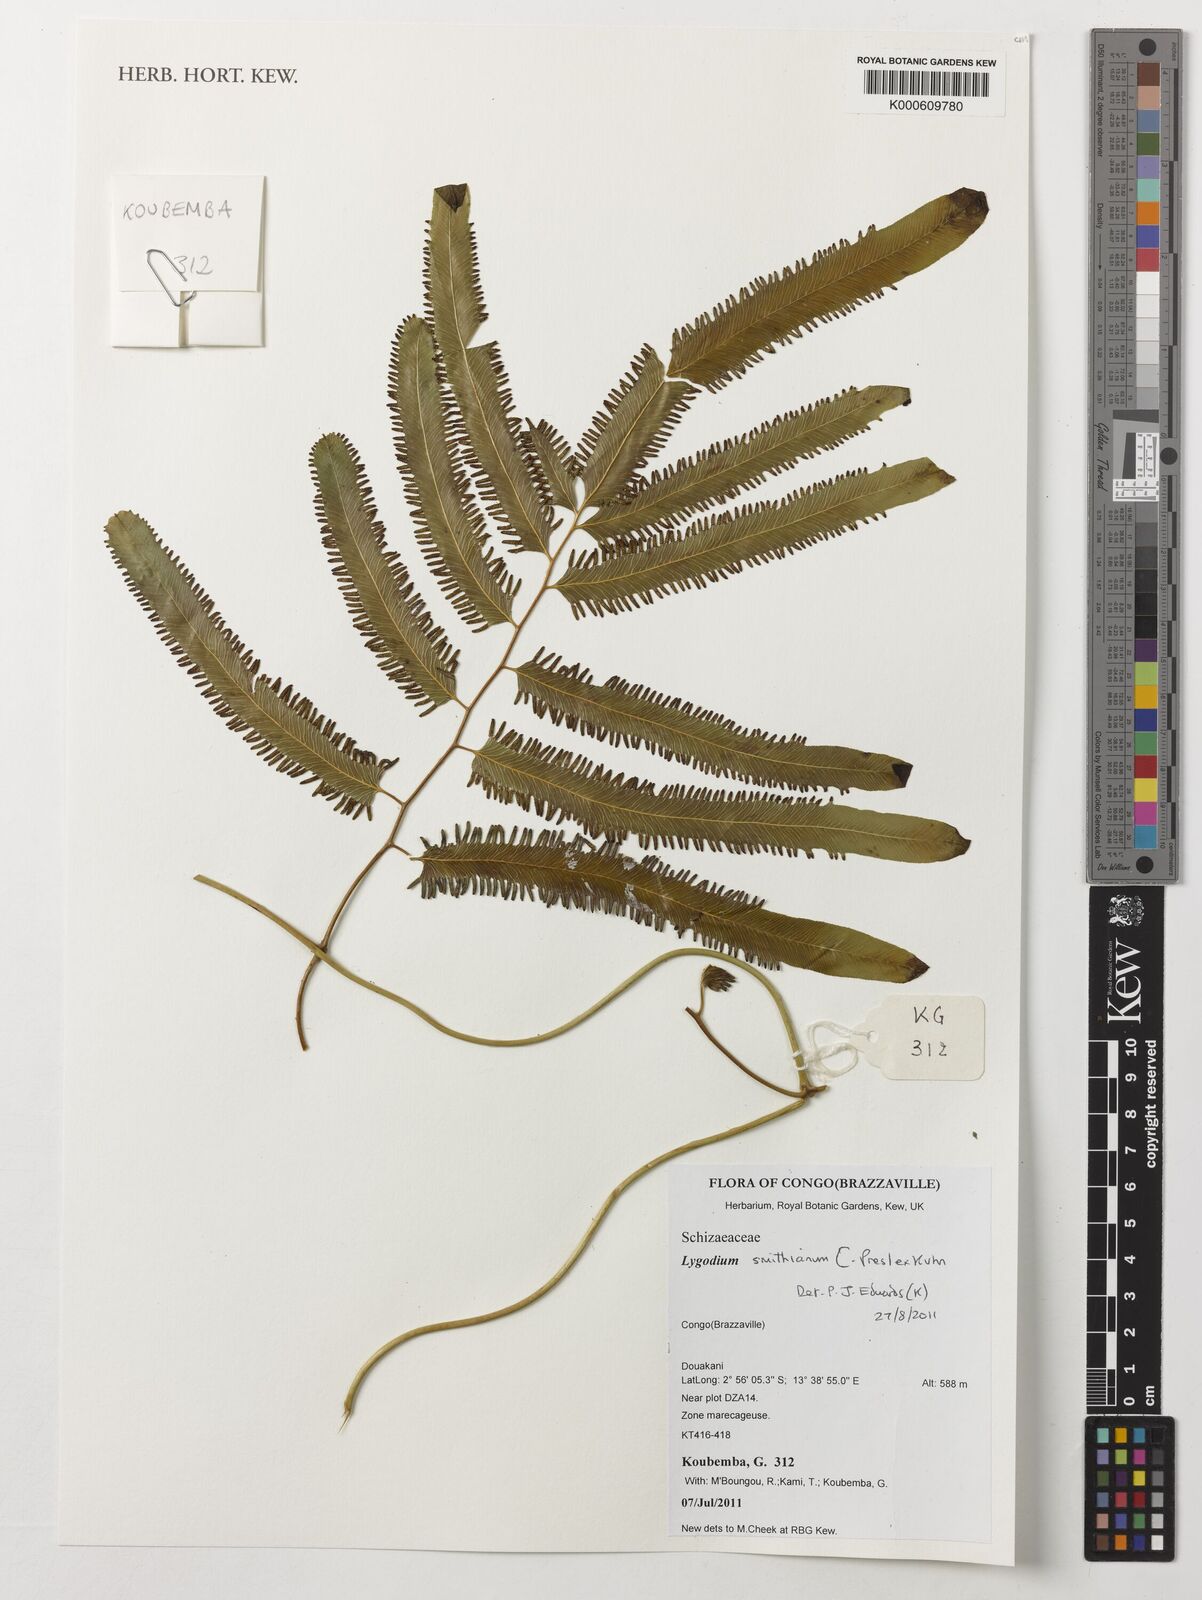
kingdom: Plantae
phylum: Tracheophyta
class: Polypodiopsida
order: Schizaeales
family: Lygodiaceae
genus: Lygodium
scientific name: Lygodium smithianum
